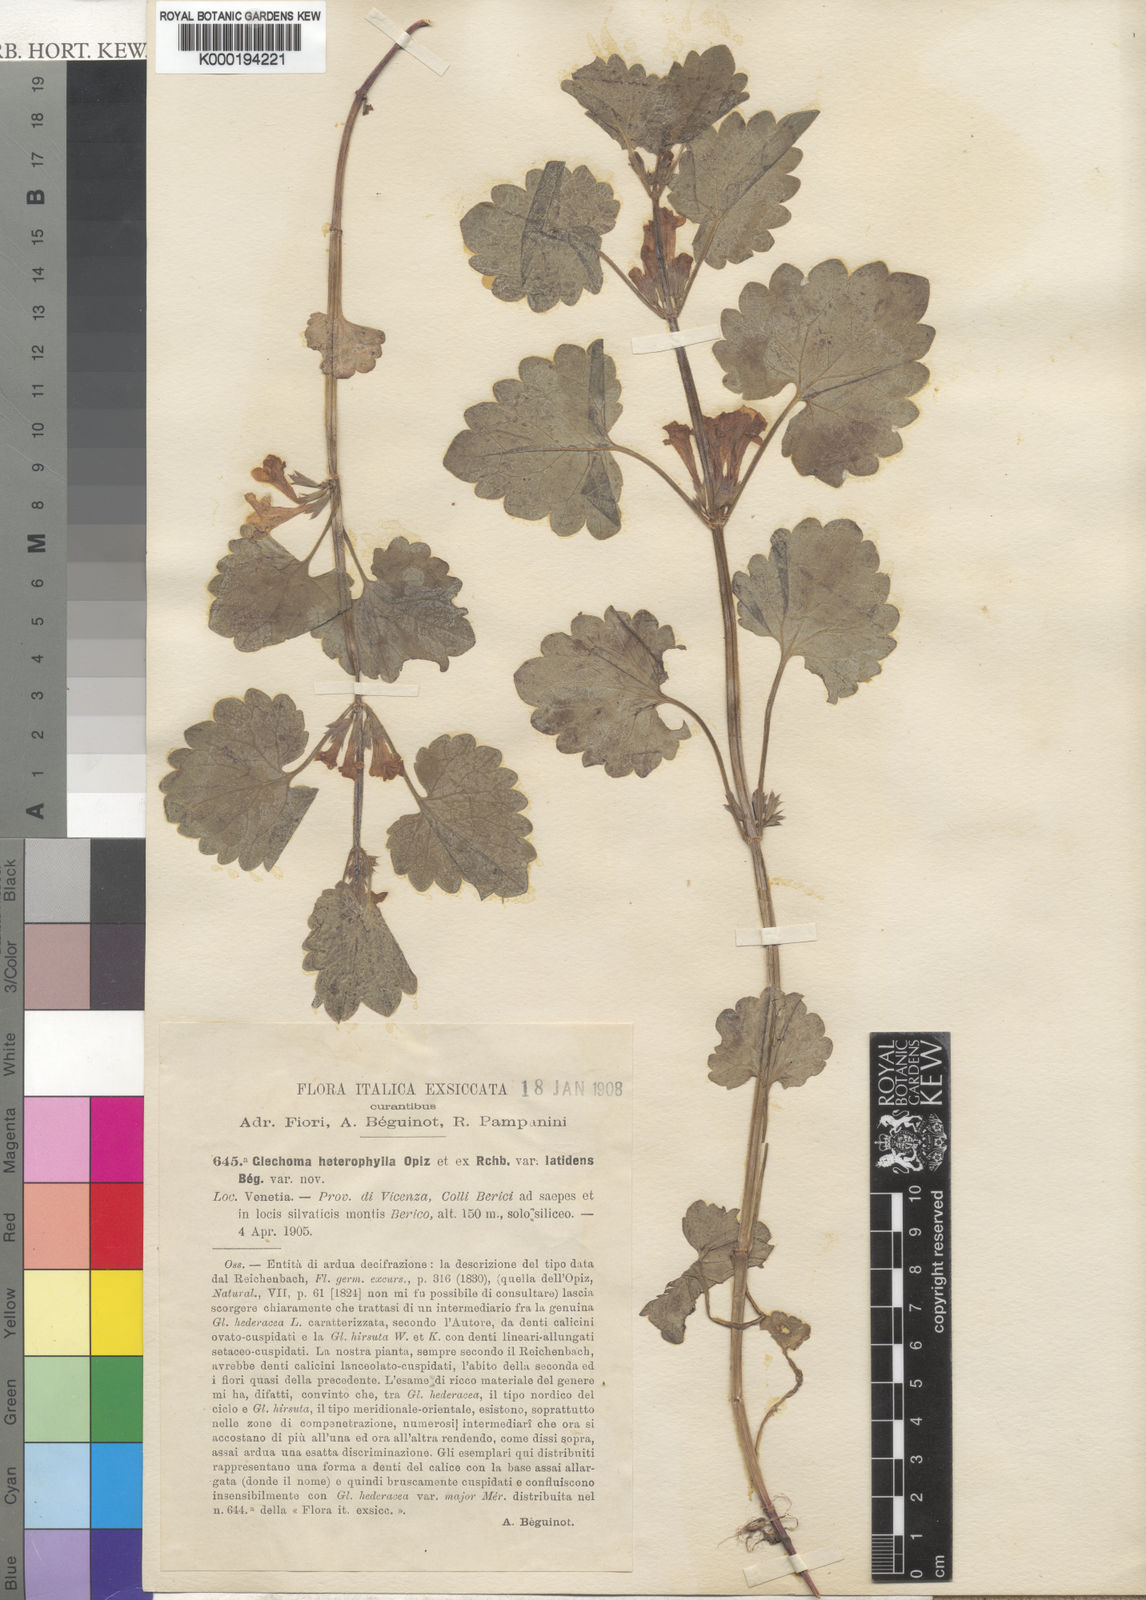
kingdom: Plantae
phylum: Tracheophyta
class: Magnoliopsida
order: Lamiales
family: Lamiaceae
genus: Glechoma
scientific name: Glechoma hederacea
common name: Ground ivy
